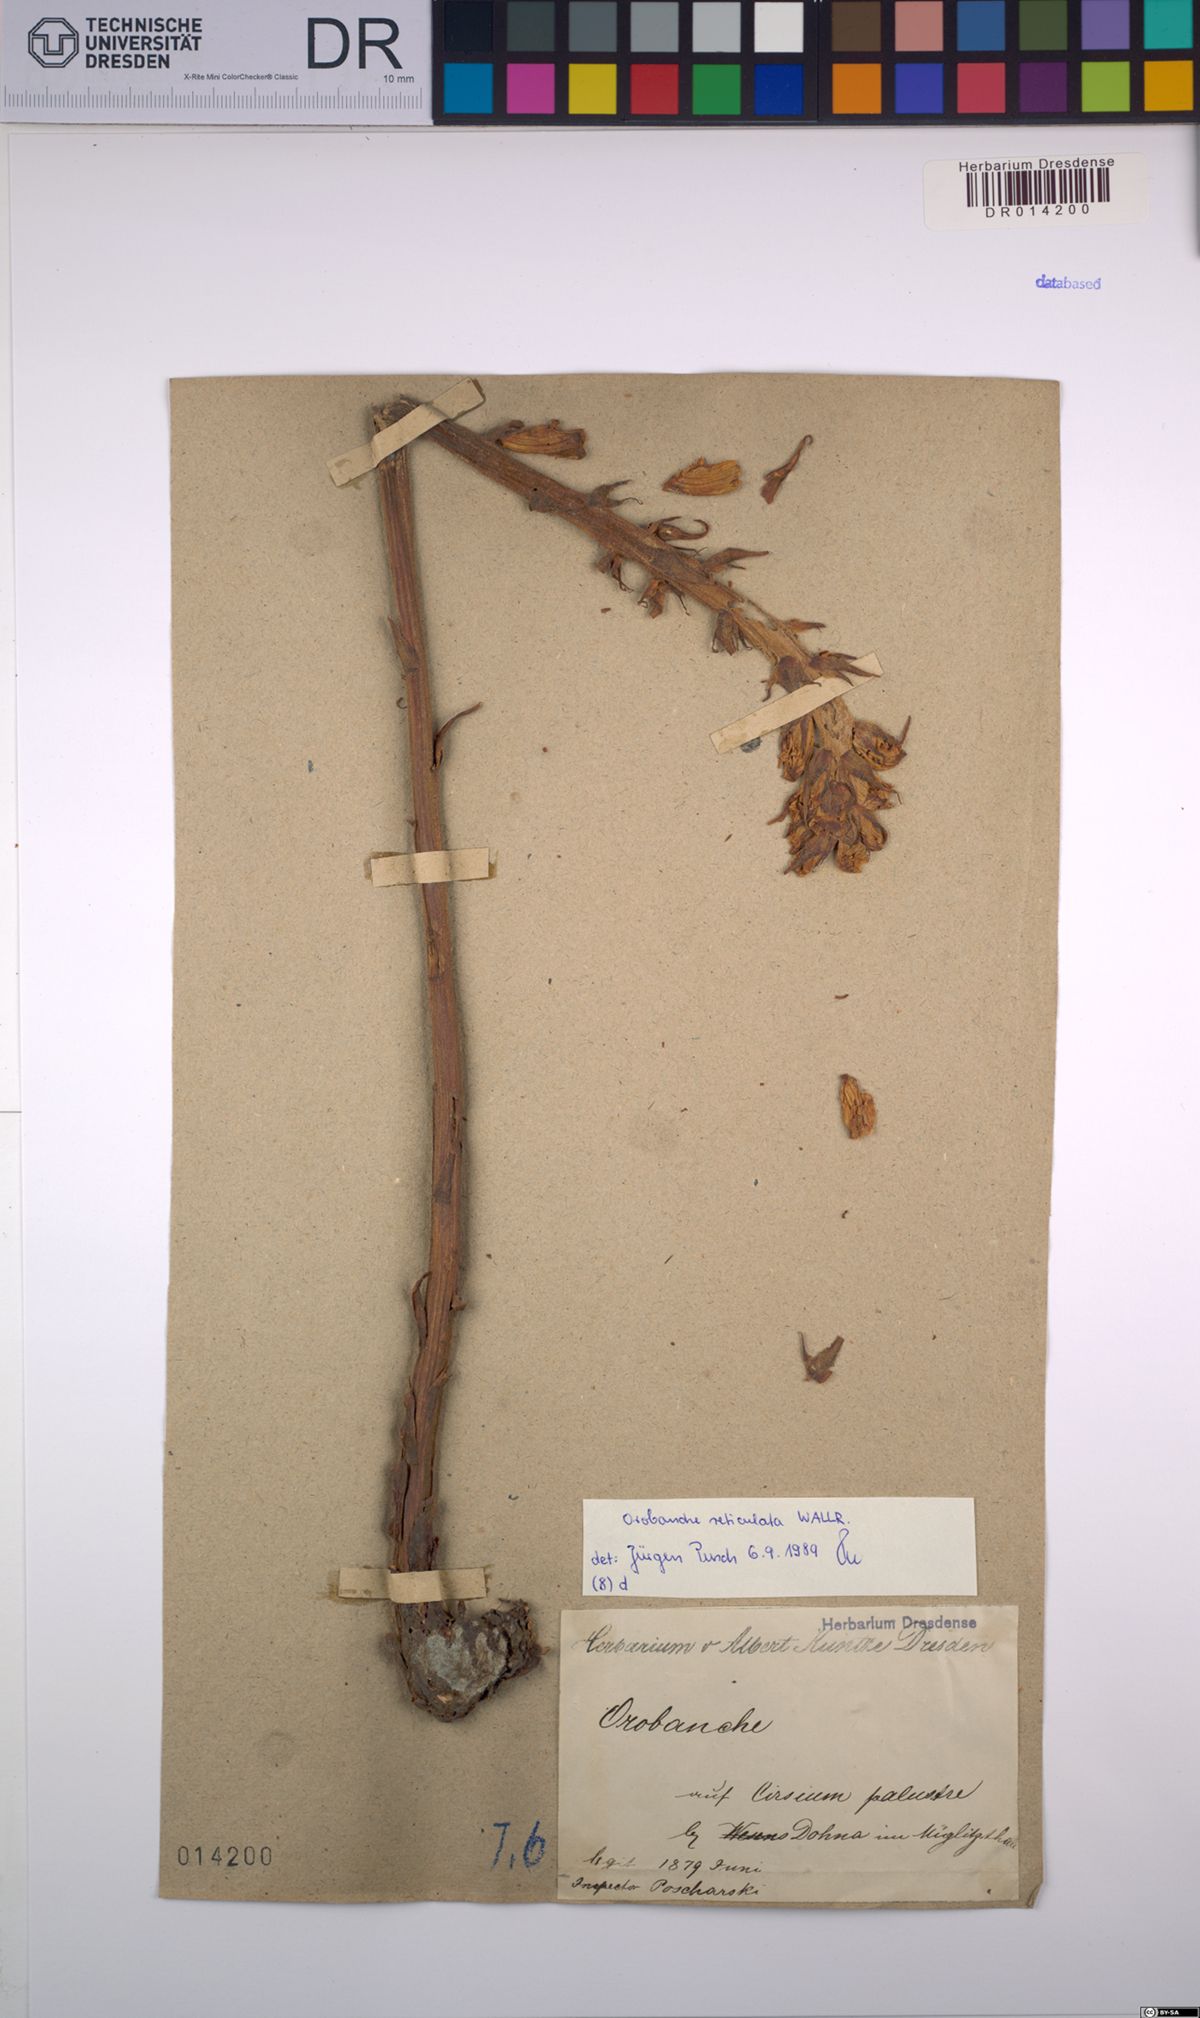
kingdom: Plantae
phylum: Tracheophyta
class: Magnoliopsida
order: Lamiales
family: Orobanchaceae
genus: Orobanche
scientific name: Orobanche reticulata
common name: Thistle broomrape
